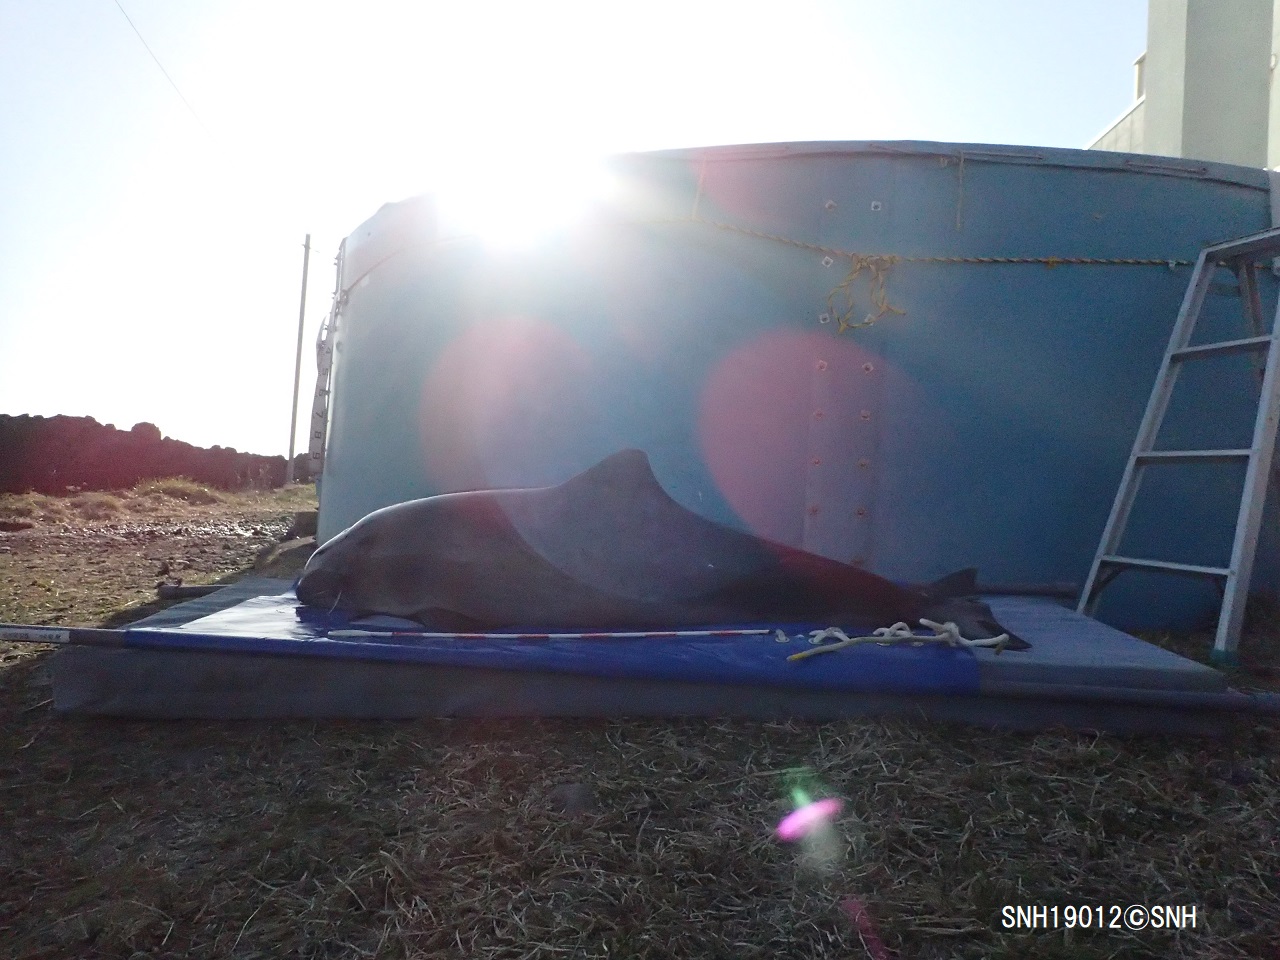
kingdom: Animalia
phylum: Chordata
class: Mammalia
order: Cetacea
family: Phocoenidae
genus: Phocoena
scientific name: Phocoena phocoena
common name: Harbour porpoise
